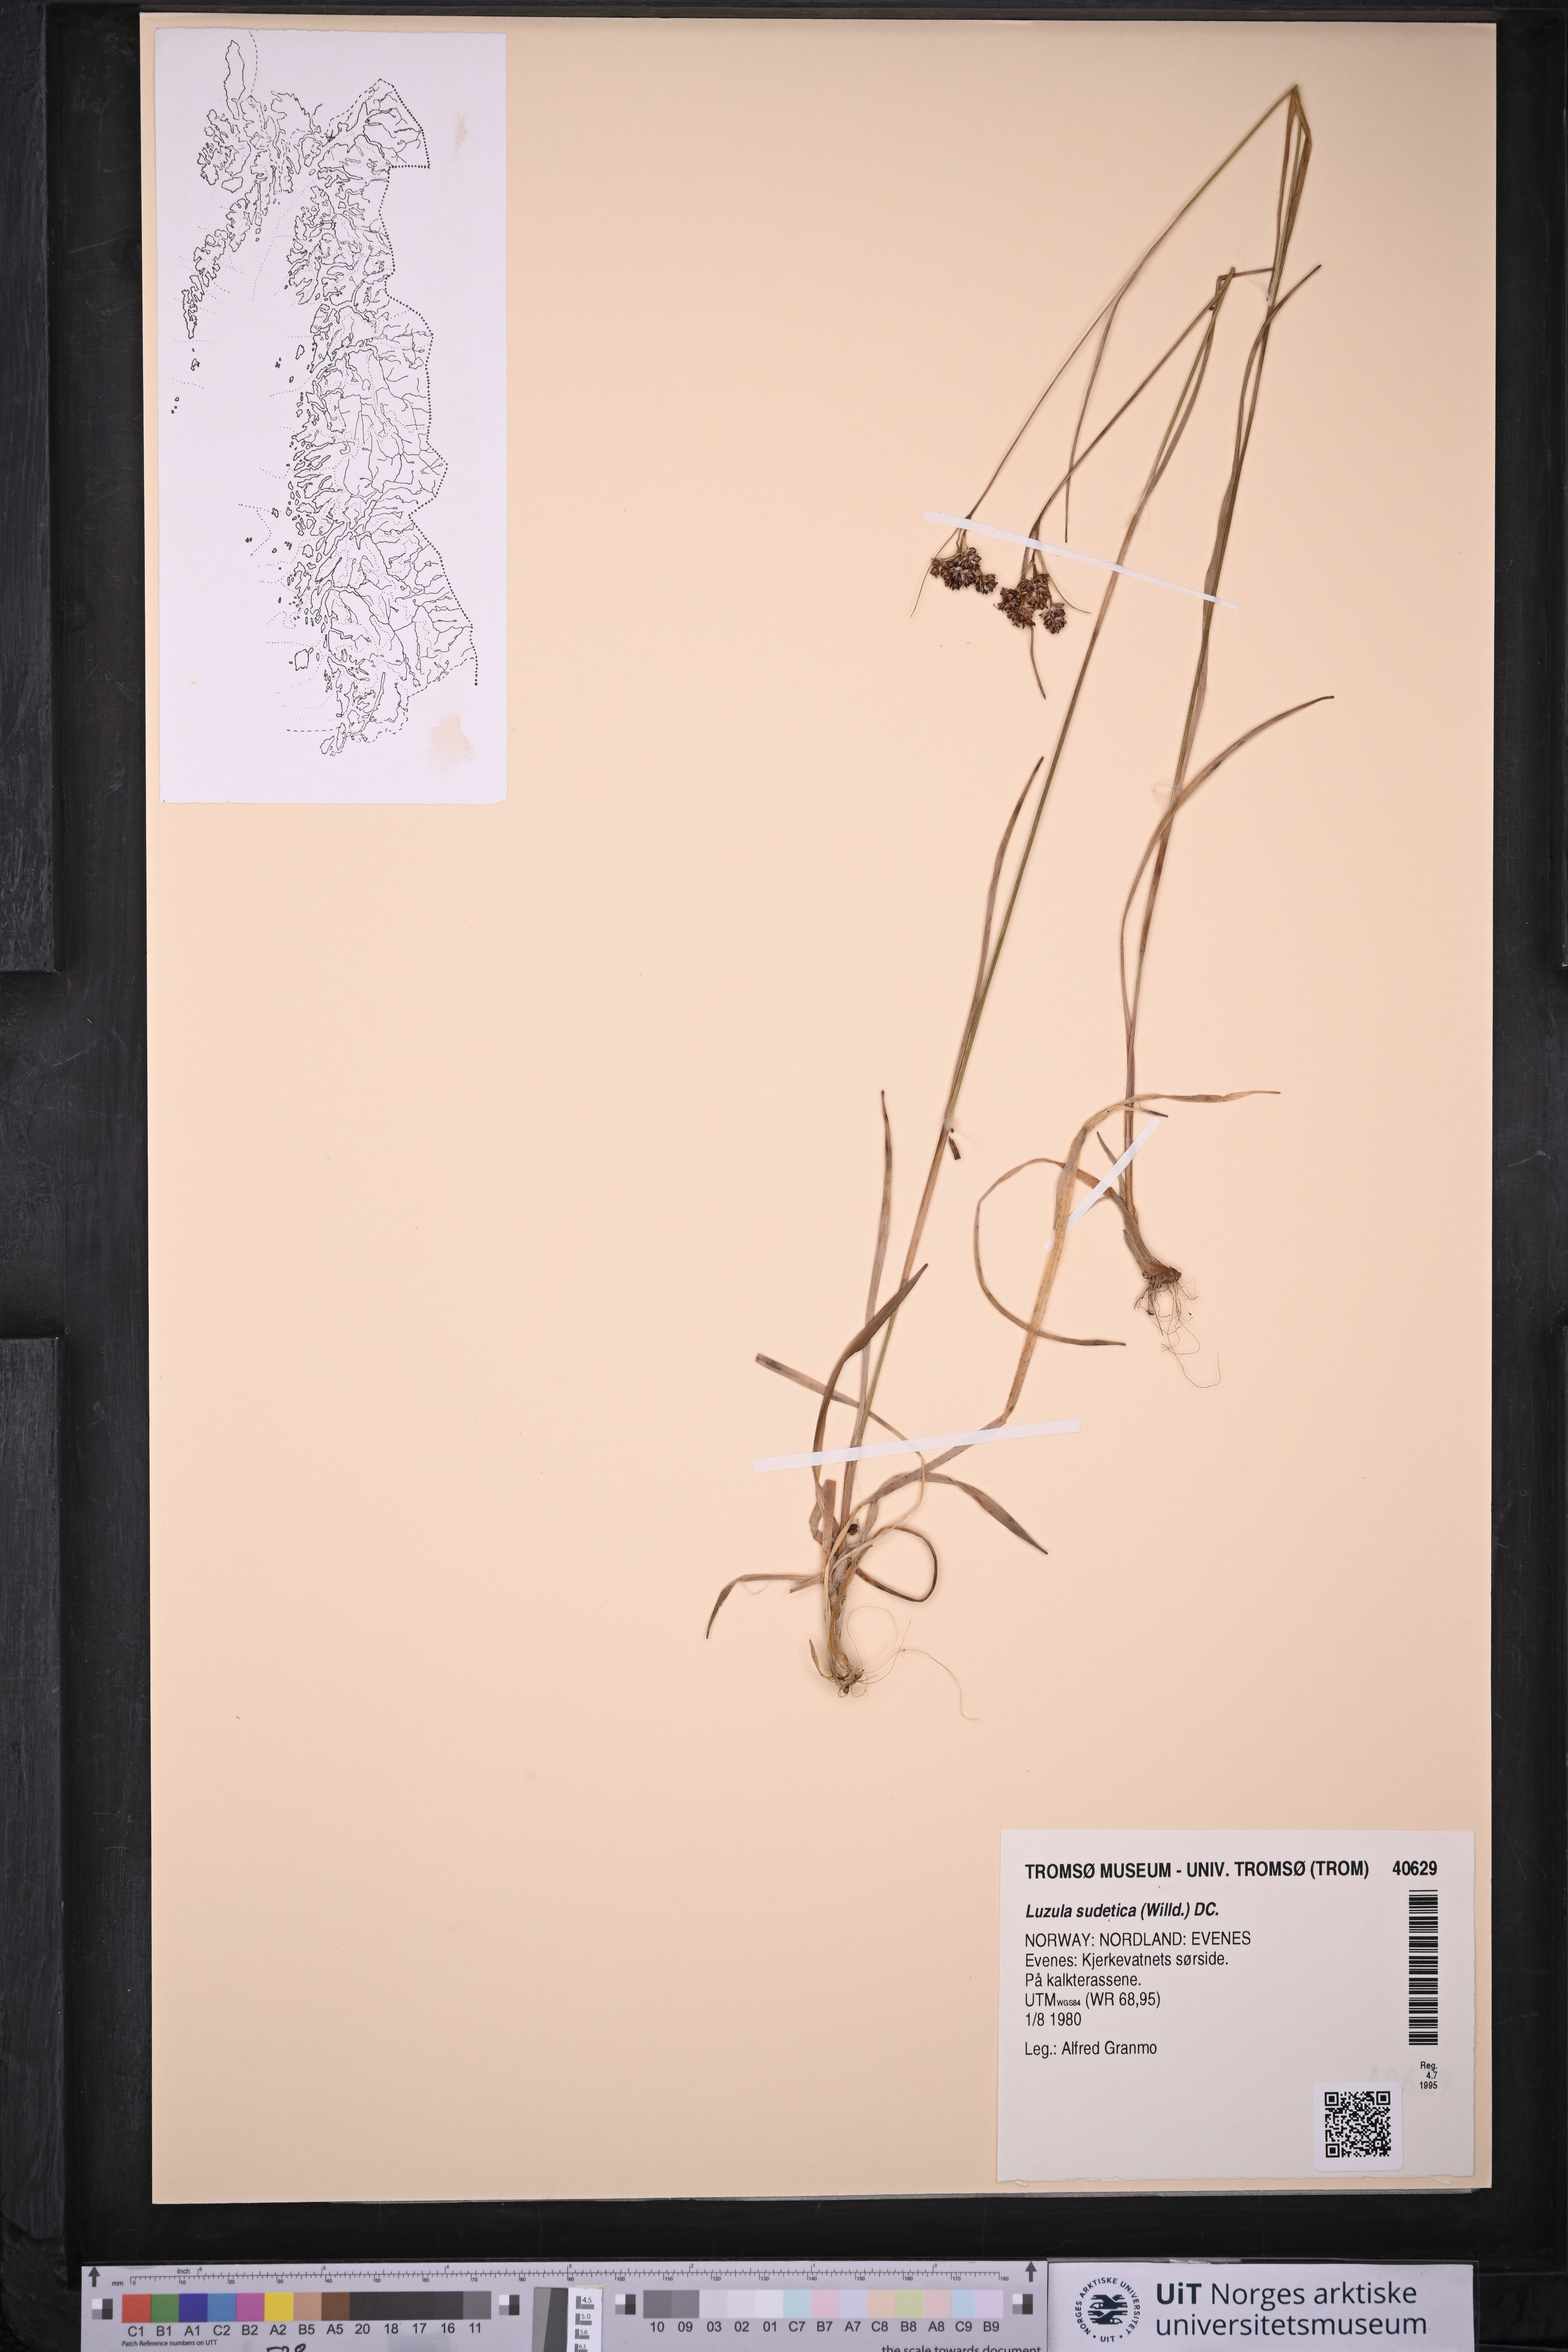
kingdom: Plantae
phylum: Tracheophyta
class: Liliopsida
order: Poales
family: Juncaceae
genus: Luzula
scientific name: Luzula sudetica
